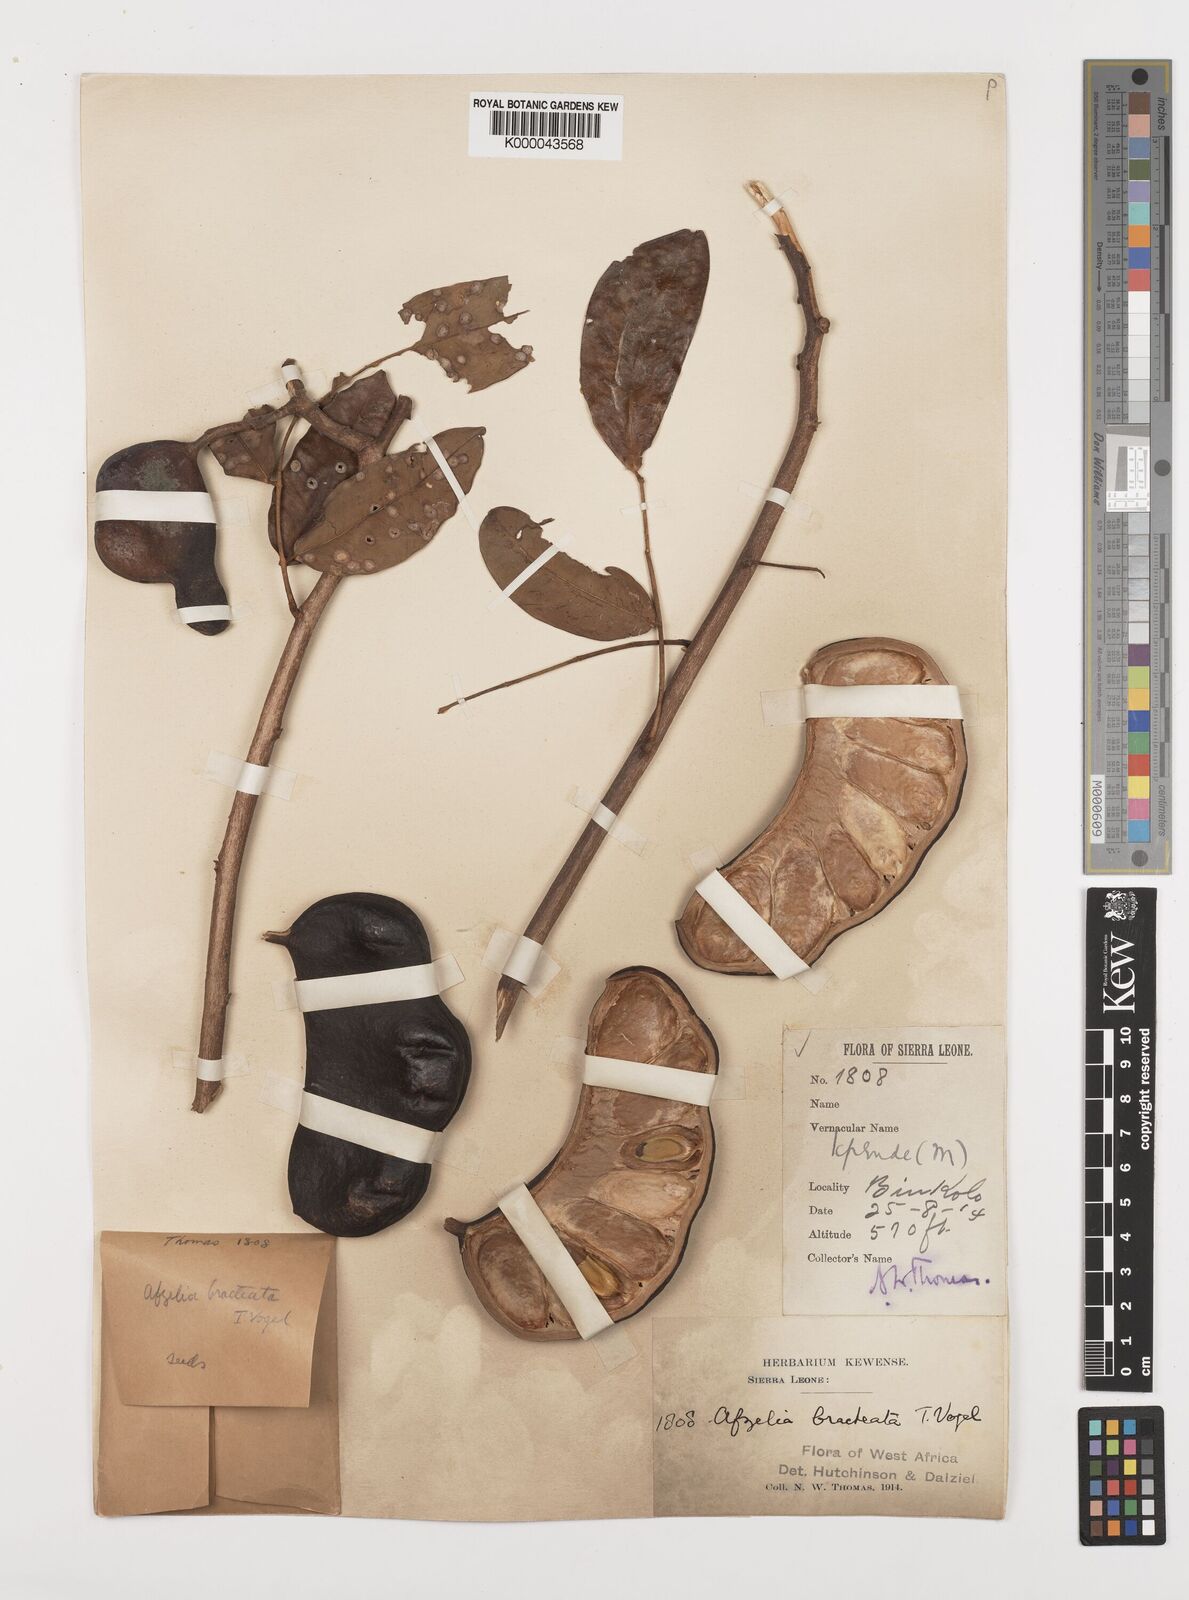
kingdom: Plantae
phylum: Tracheophyta
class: Magnoliopsida
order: Fabales
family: Fabaceae
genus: Afzelia
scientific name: Afzelia
